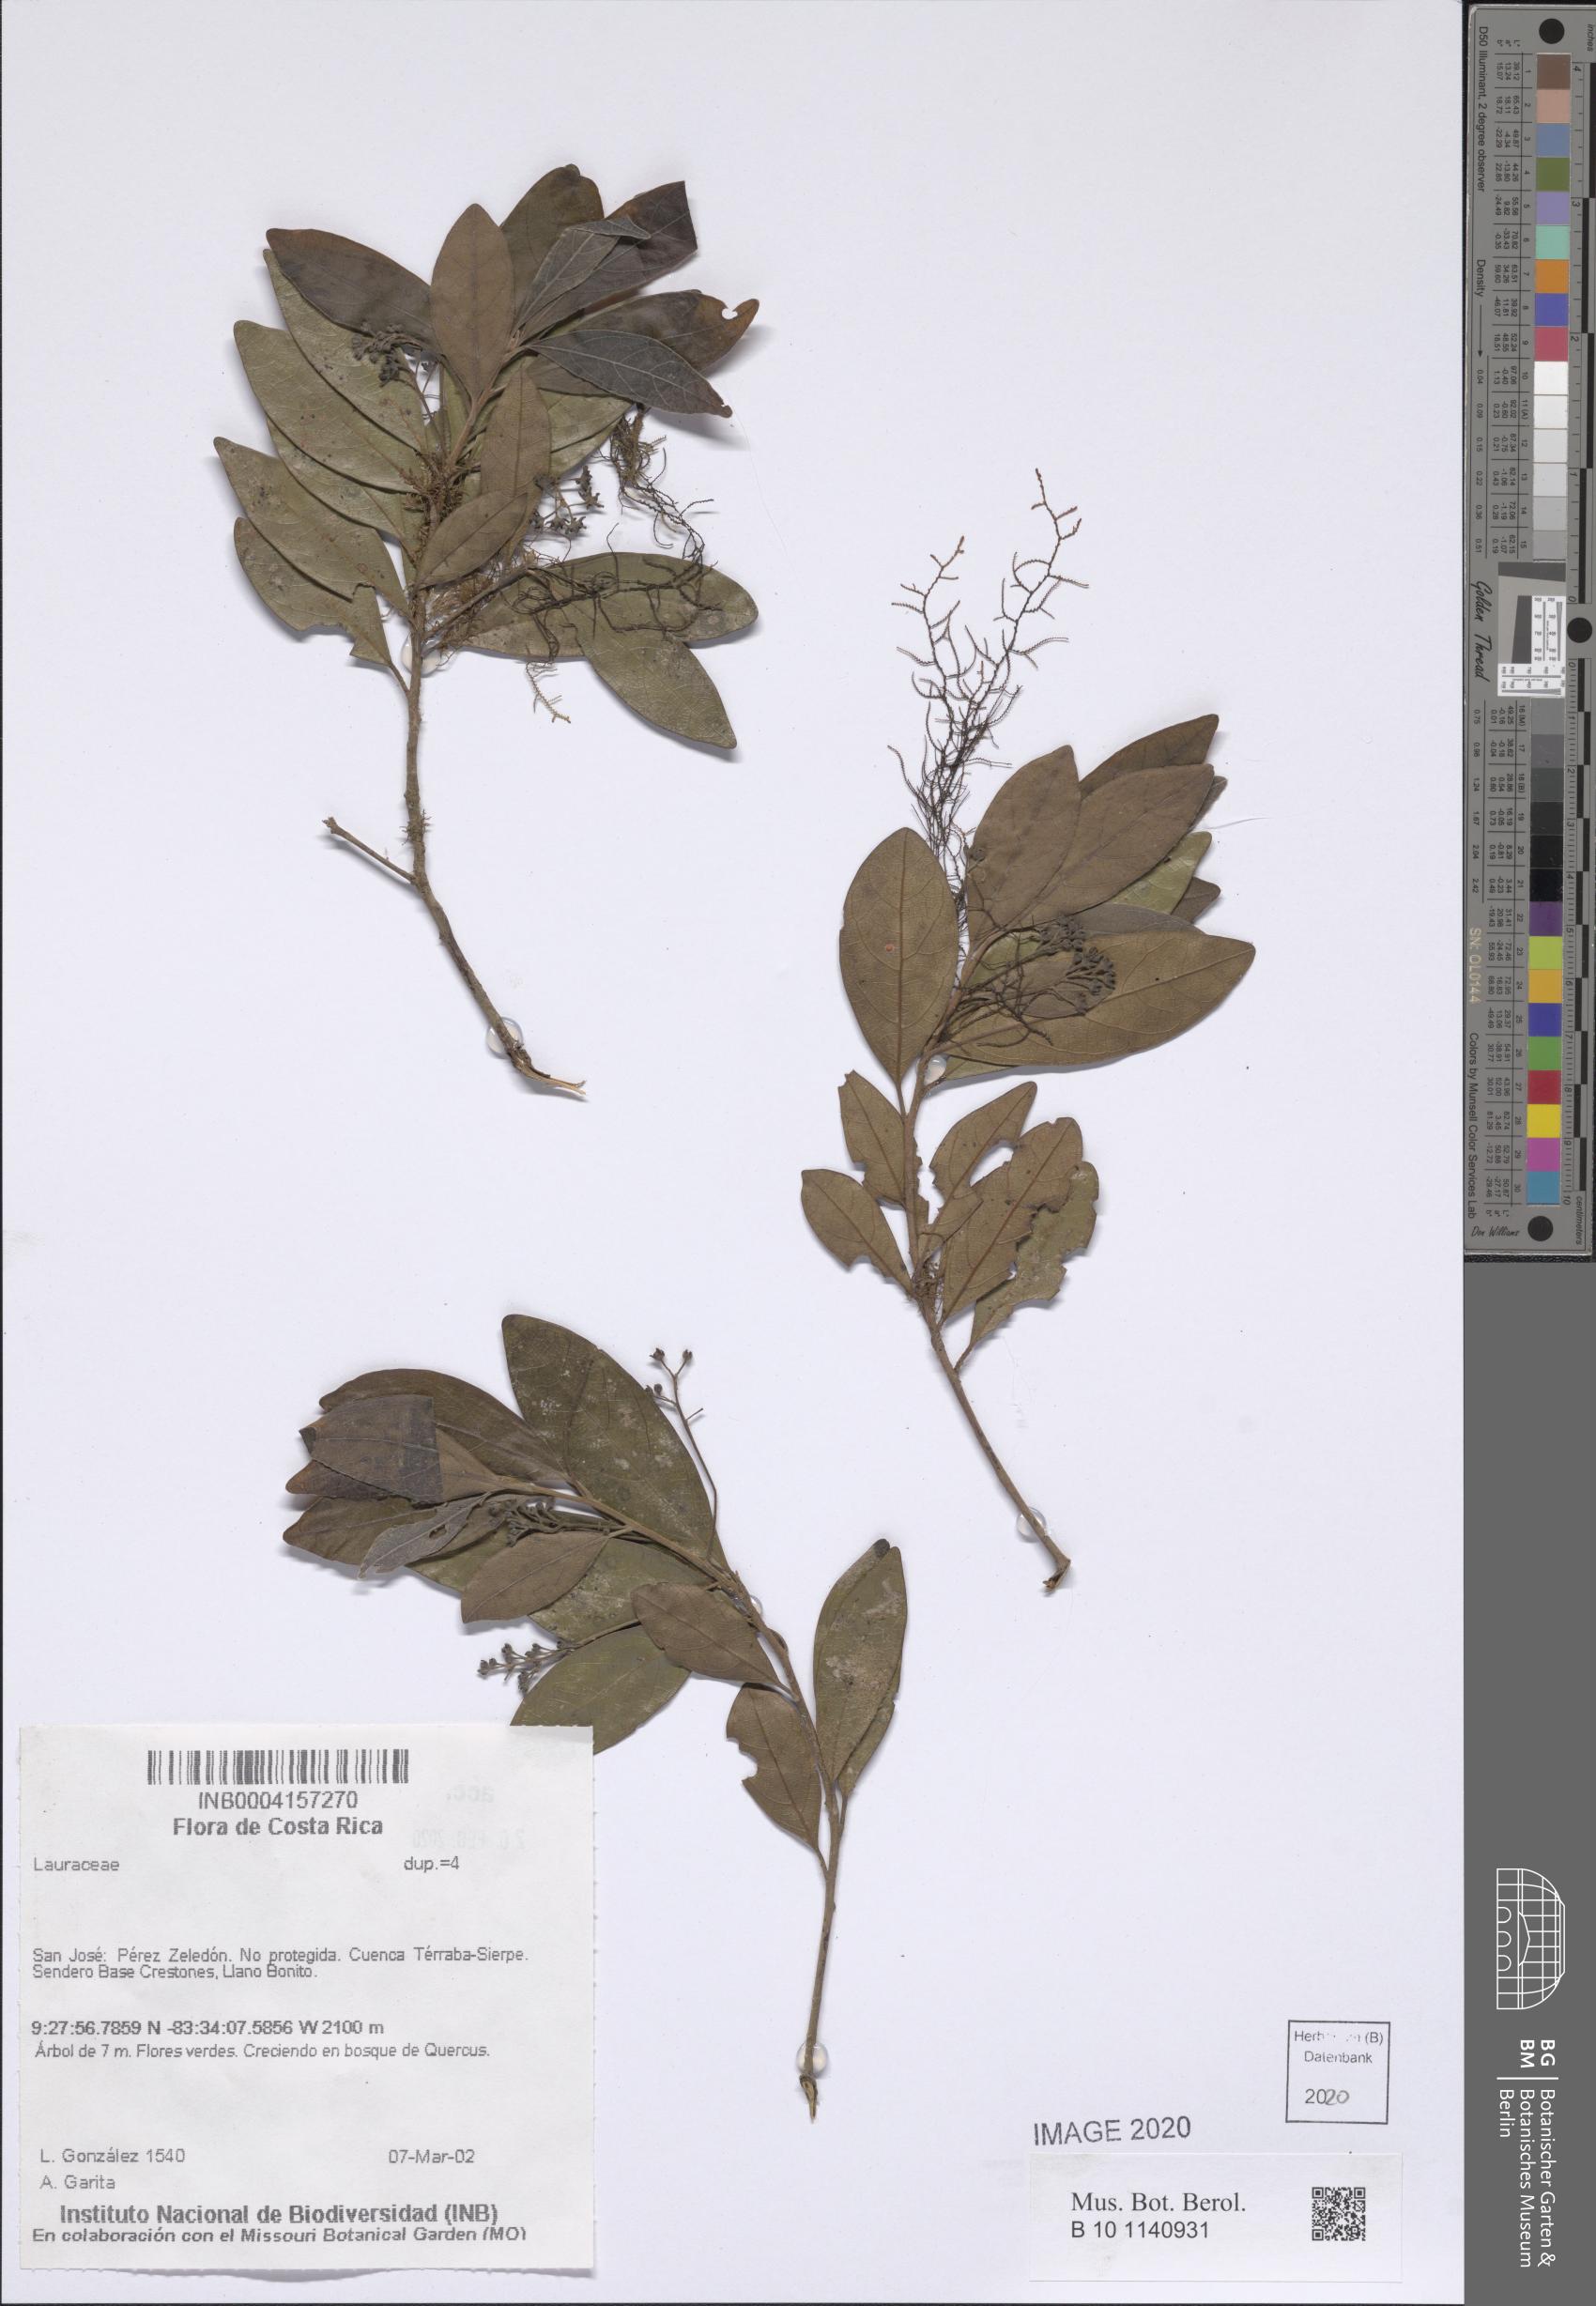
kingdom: Plantae
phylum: Tracheophyta
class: Magnoliopsida
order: Laurales
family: Lauraceae
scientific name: Lauraceae
